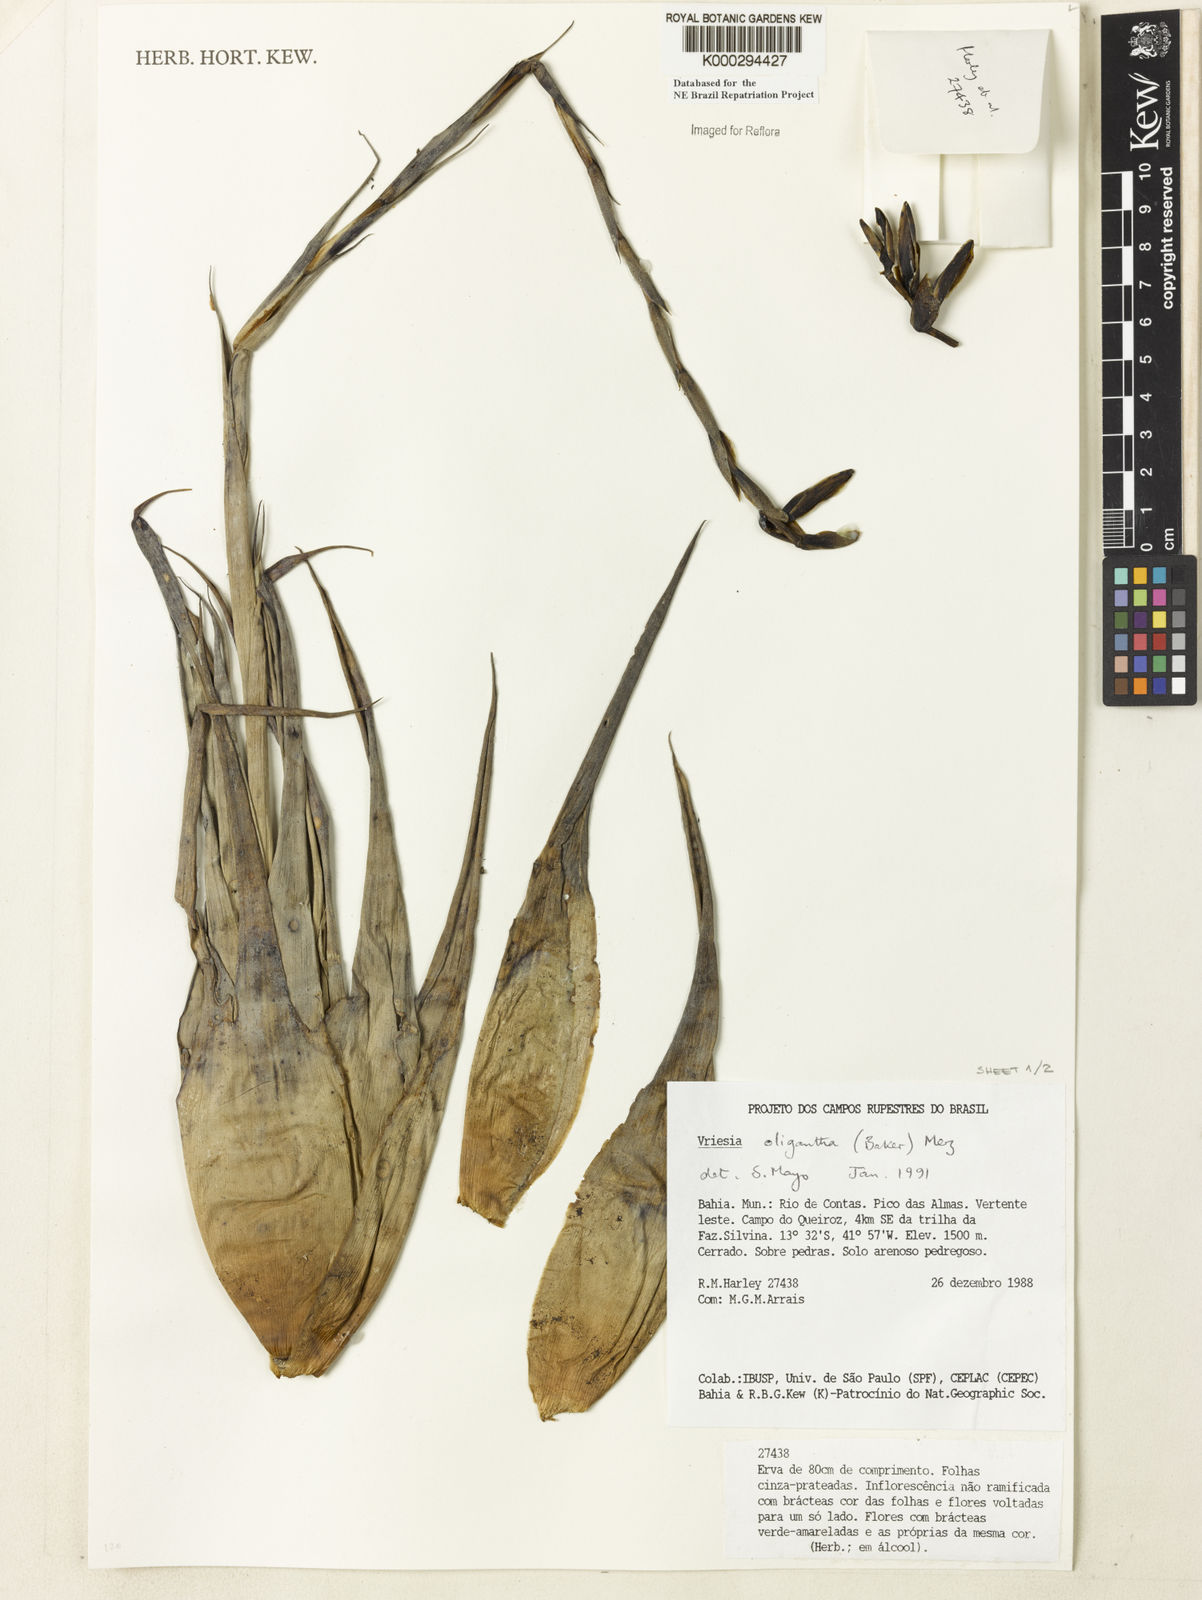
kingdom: Plantae
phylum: Tracheophyta
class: Liliopsida
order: Poales
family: Bromeliaceae
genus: Vriesea
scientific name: Vriesea oligantha
